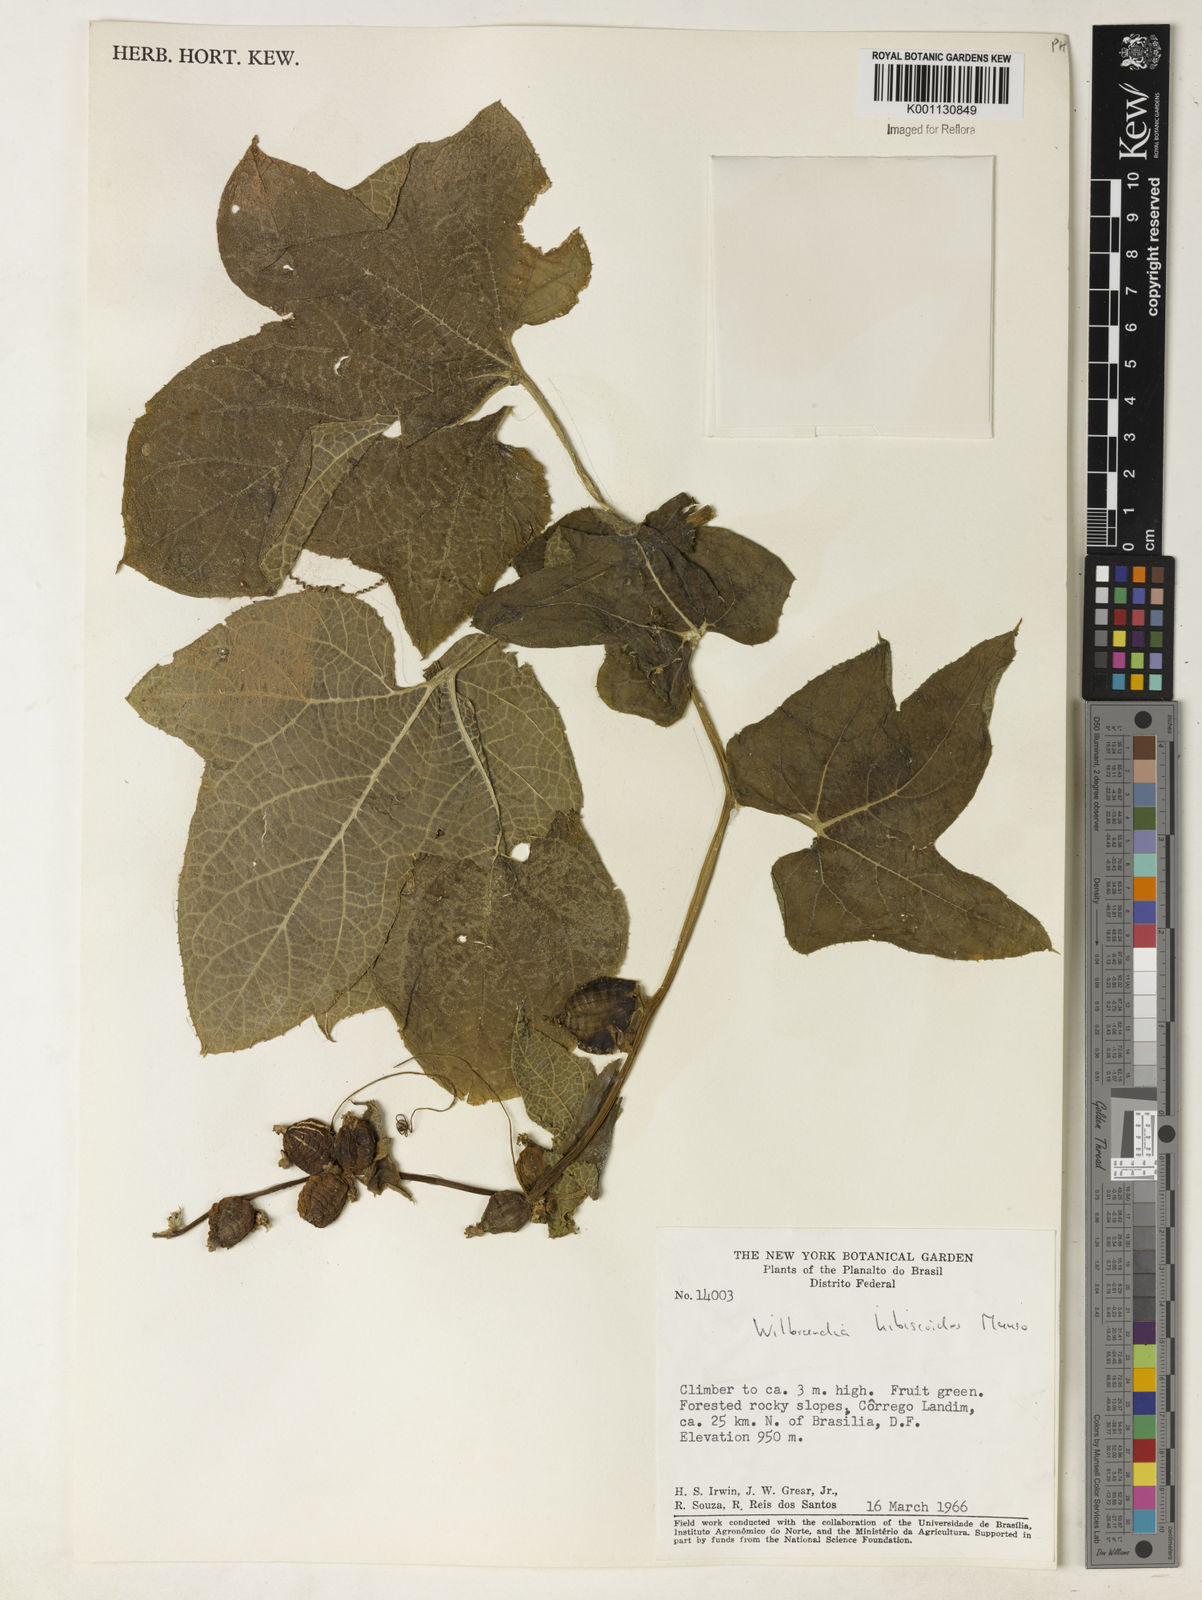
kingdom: Plantae
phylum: Tracheophyta
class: Magnoliopsida
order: Cucurbitales
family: Cucurbitaceae
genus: Wilbrandia
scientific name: Wilbrandia hibiscoides
